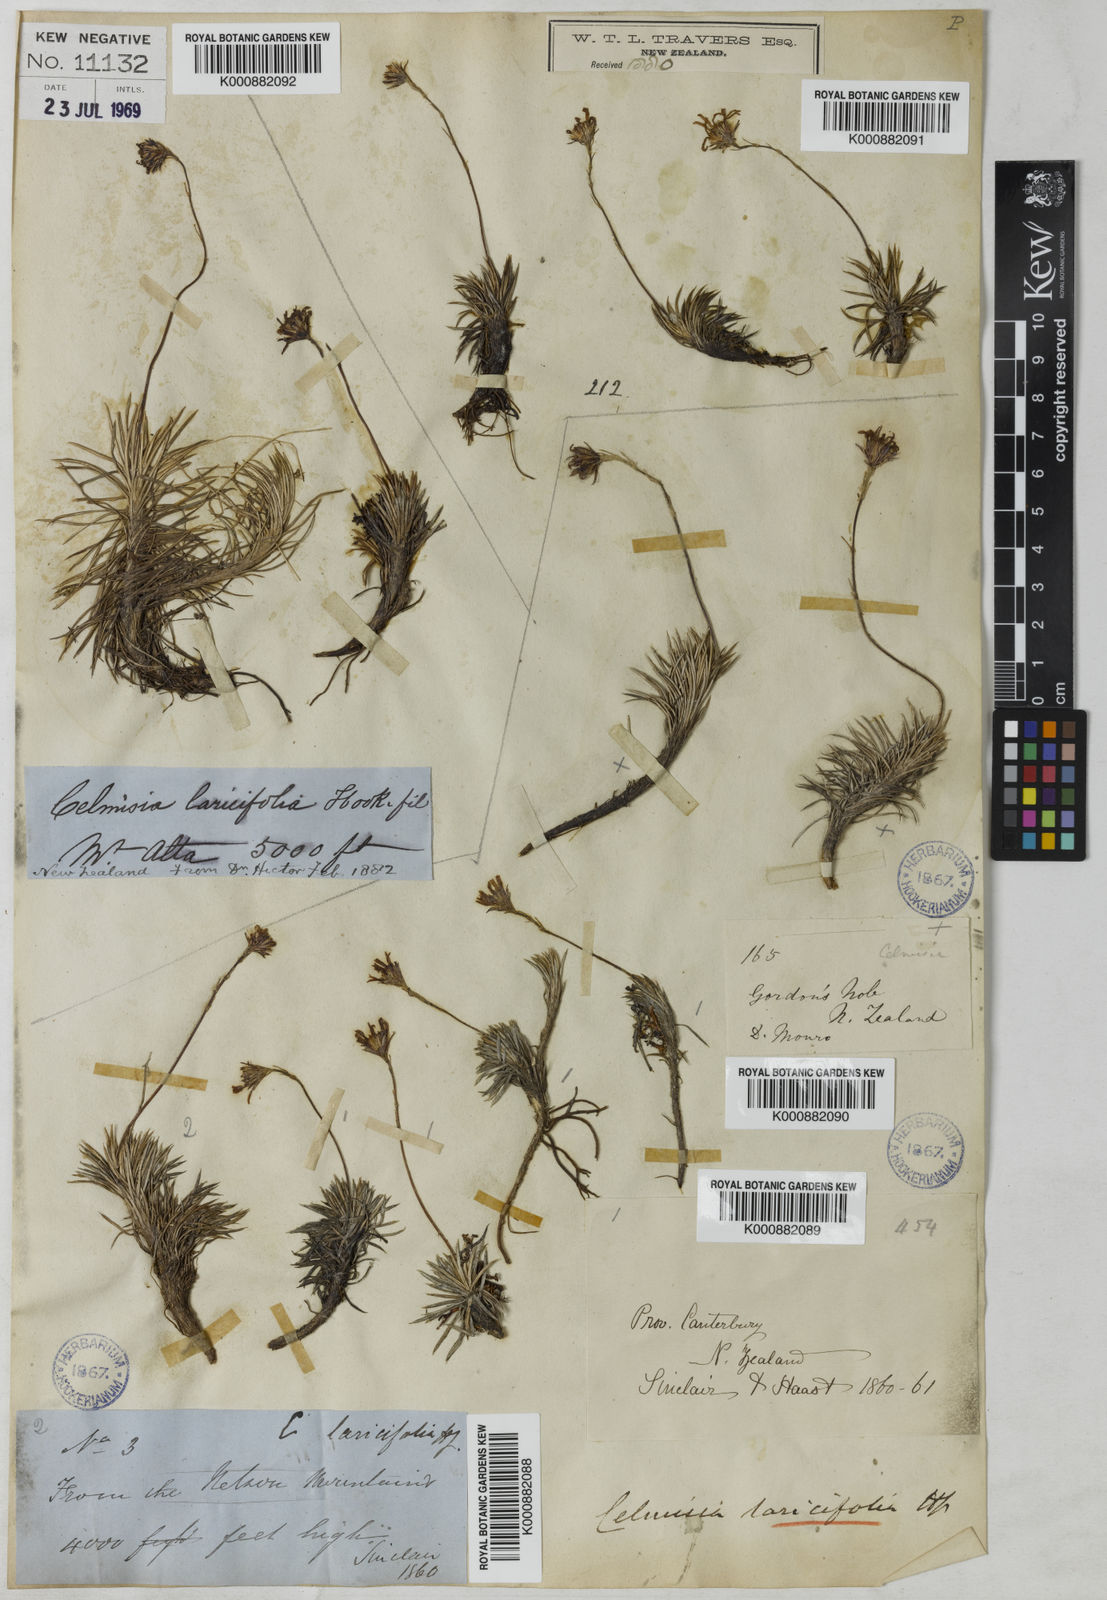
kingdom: Plantae
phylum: Tracheophyta
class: Magnoliopsida
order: Asterales
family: Asteraceae
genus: Celmisia
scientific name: Celmisia laricifolia
